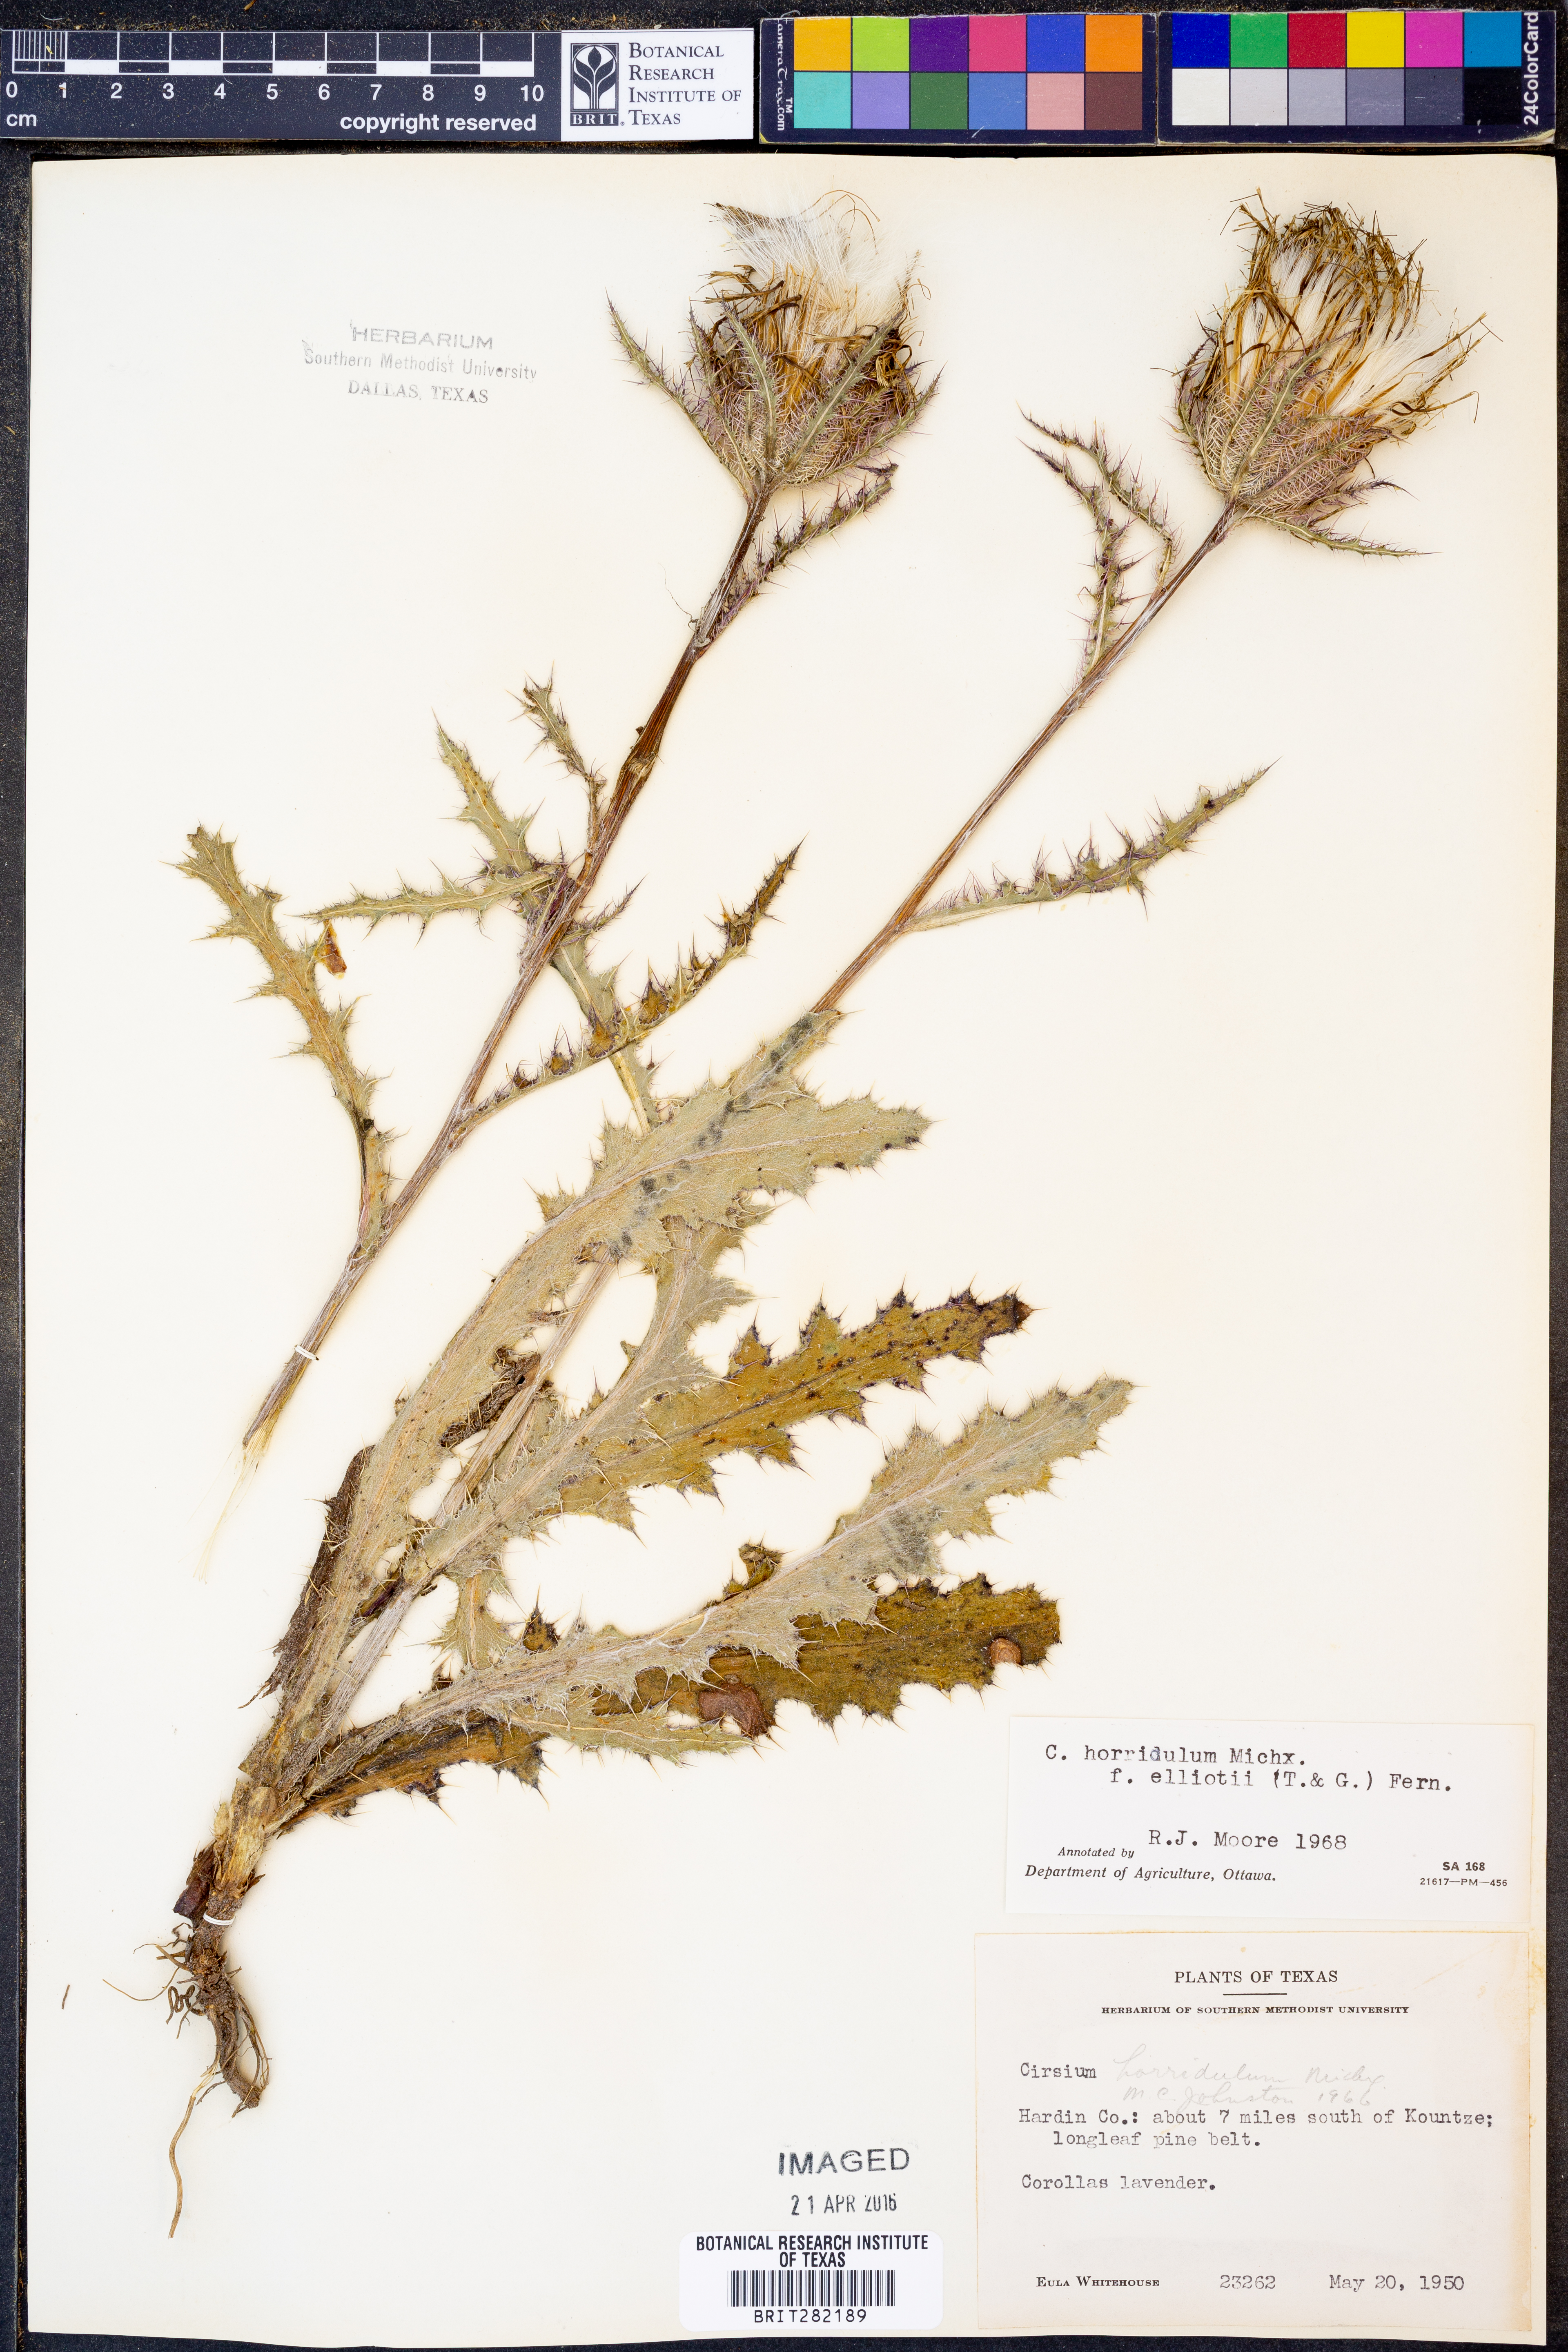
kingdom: Plantae
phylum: Tracheophyta
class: Magnoliopsida
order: Asterales
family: Asteraceae
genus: Cirsium
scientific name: Cirsium horridulum
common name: Bristly thistle
